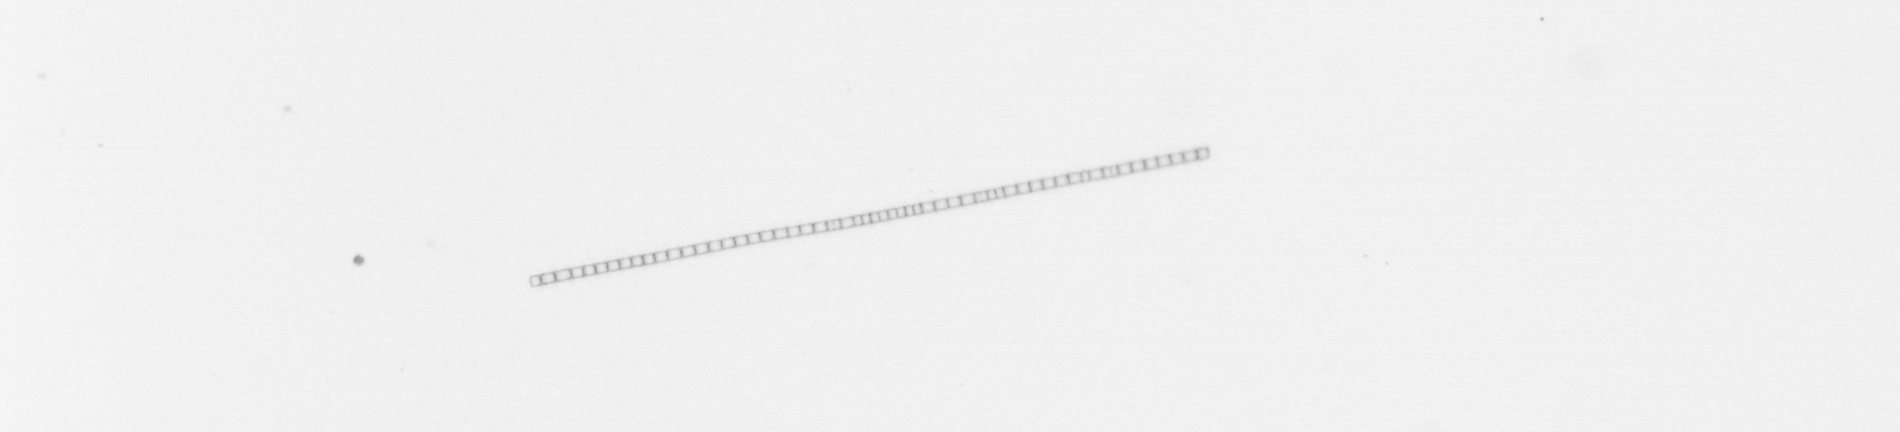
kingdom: Chromista
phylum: Ochrophyta
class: Bacillariophyceae
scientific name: Bacillariophyceae
